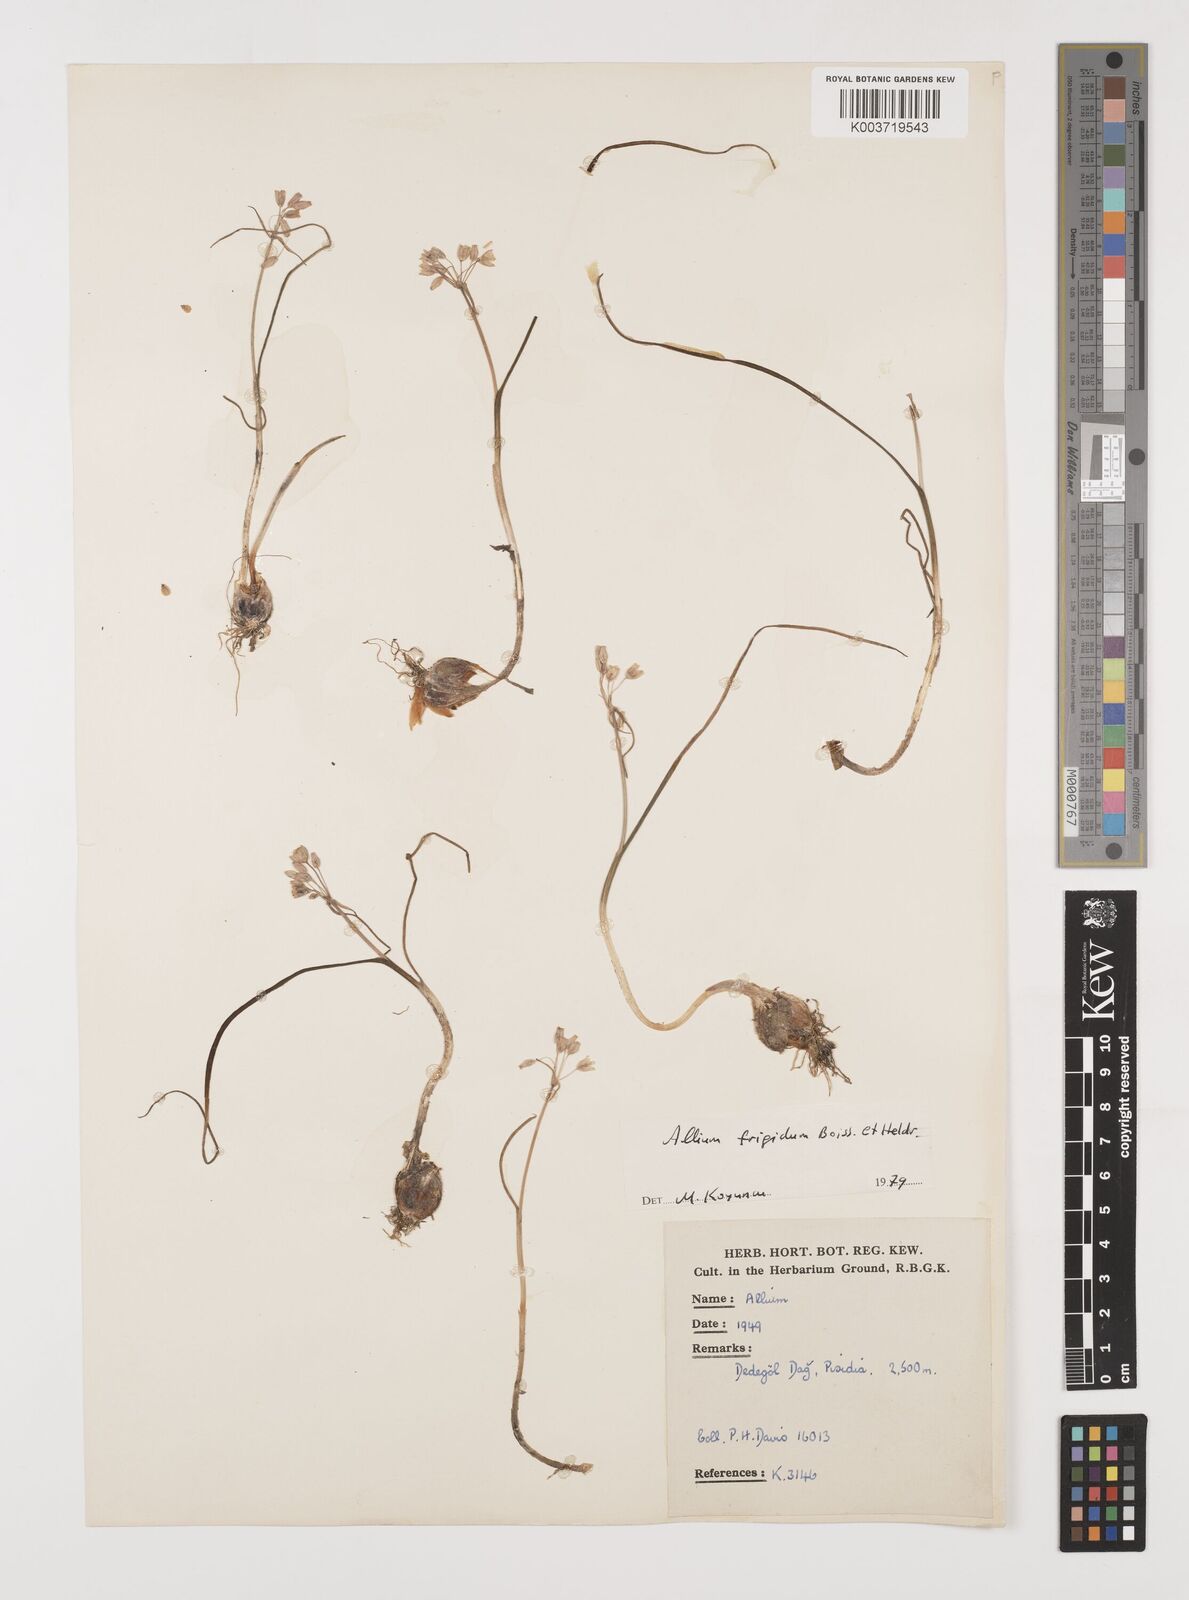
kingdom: Plantae
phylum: Tracheophyta
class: Liliopsida
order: Asparagales
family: Amaryllidaceae
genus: Allium
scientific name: Allium frigidum
